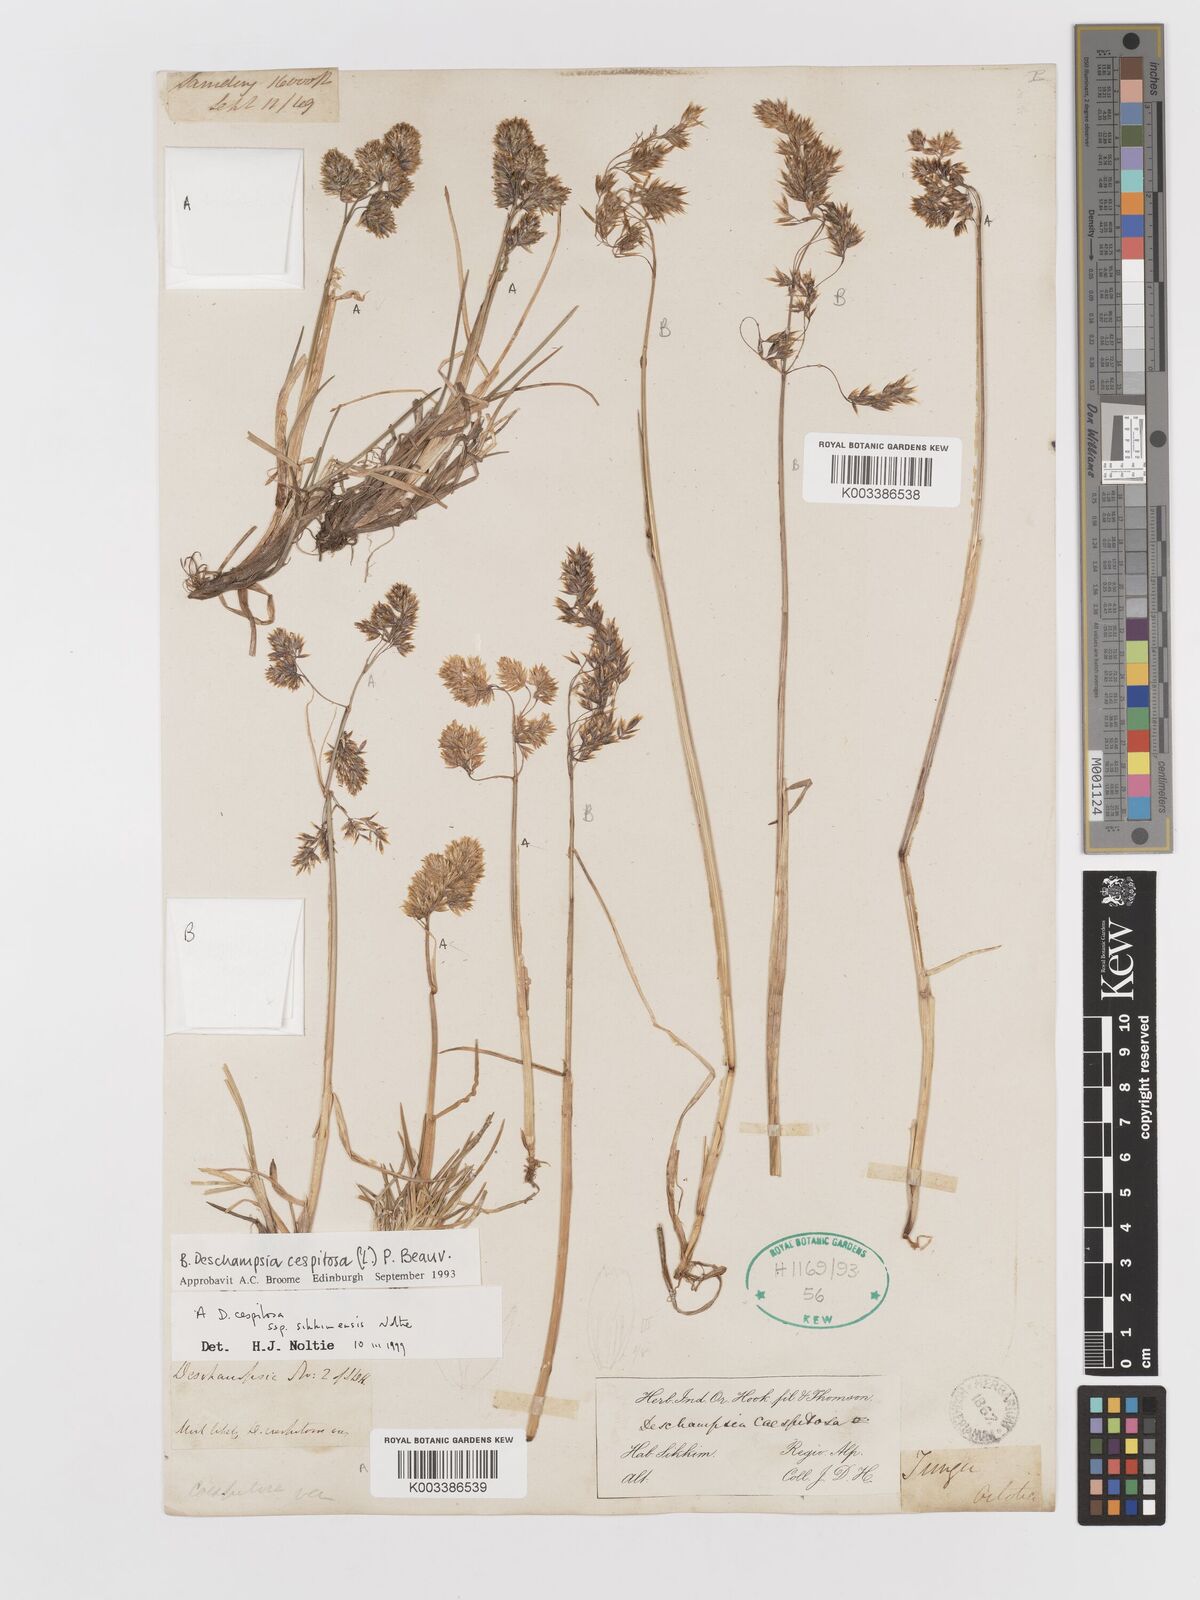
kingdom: Plantae
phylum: Tracheophyta
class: Liliopsida
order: Poales
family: Poaceae
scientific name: Poaceae
